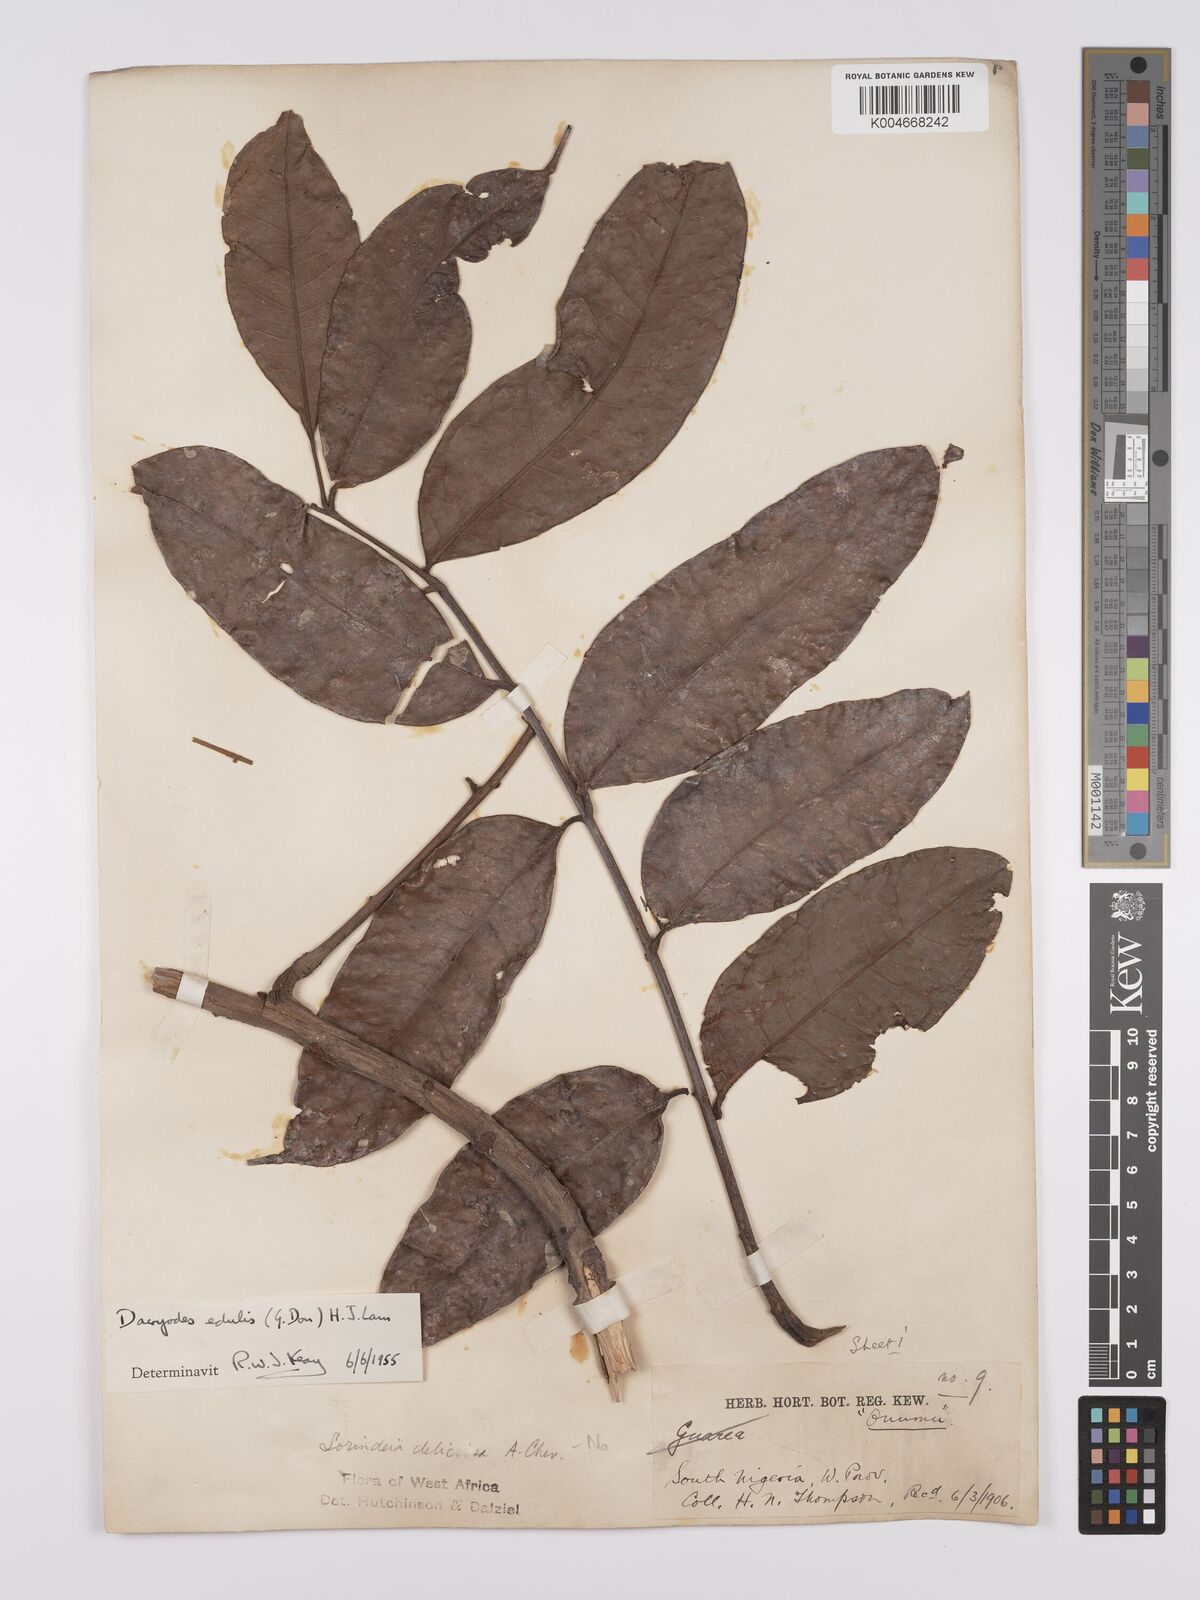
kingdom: Plantae
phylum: Tracheophyta
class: Magnoliopsida
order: Sapindales
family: Burseraceae
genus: Pachylobus
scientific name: Pachylobus edulis
